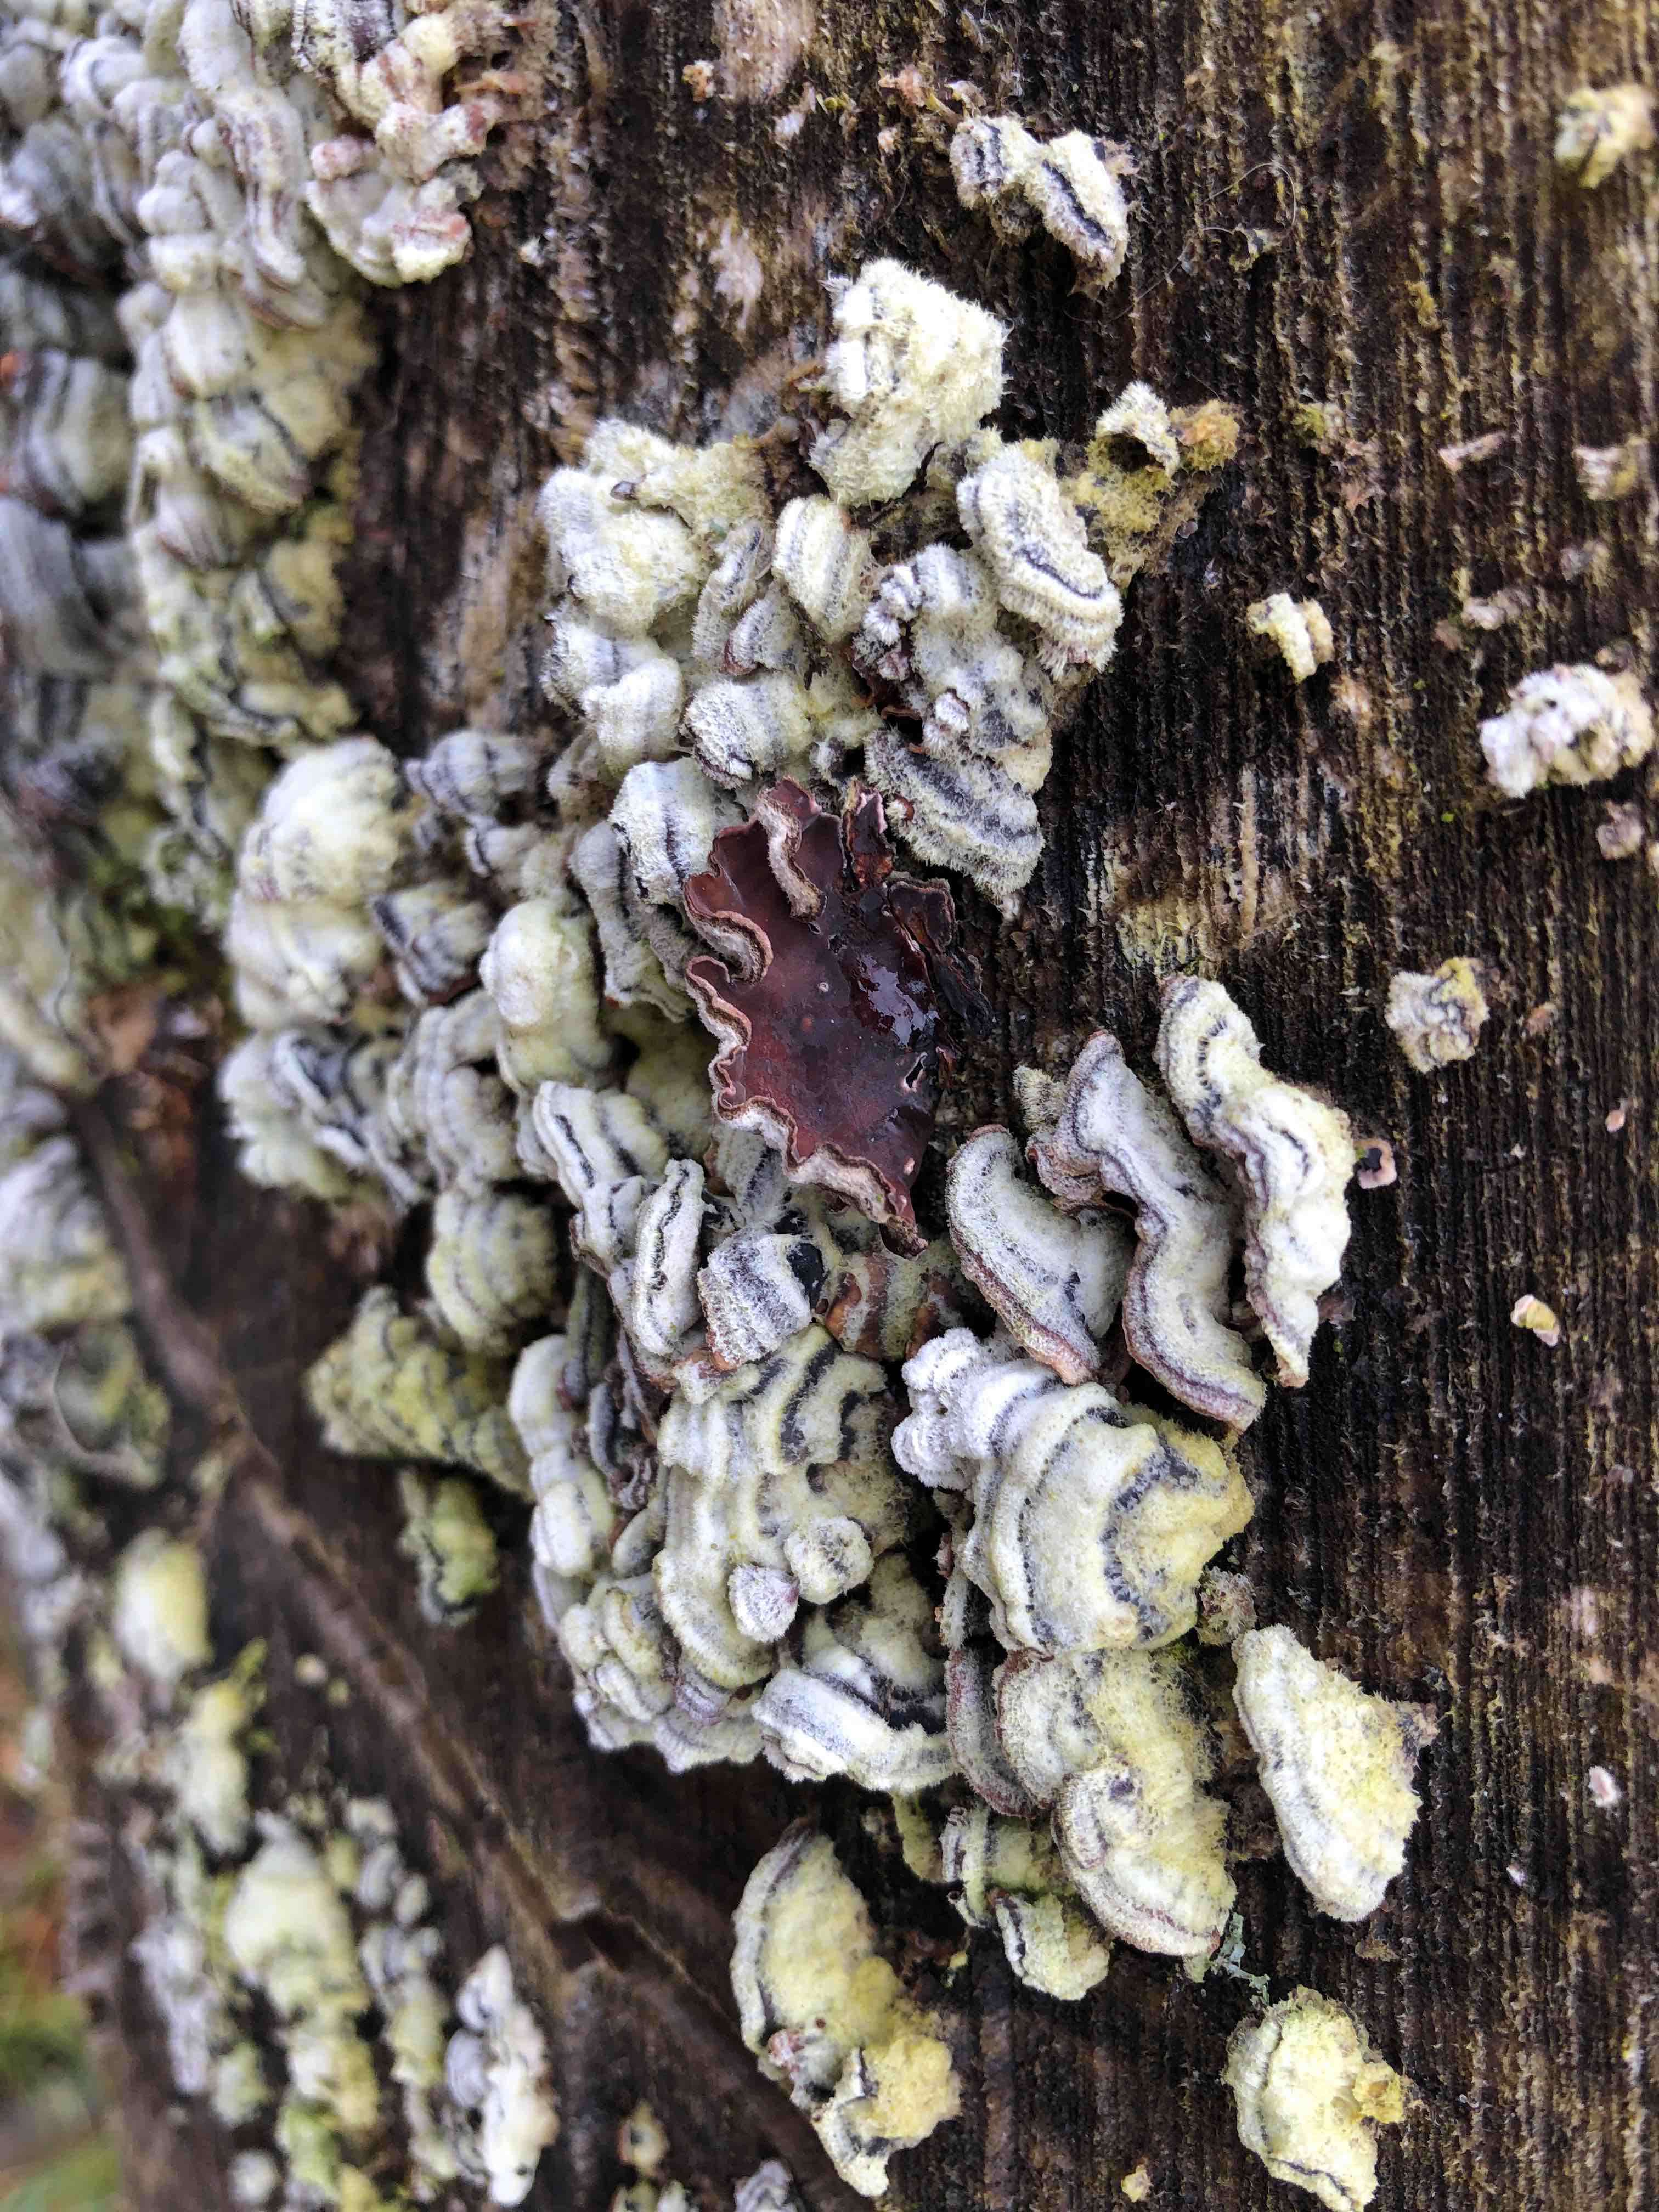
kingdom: Fungi
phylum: Basidiomycota
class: Agaricomycetes
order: Agaricales
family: Cyphellaceae
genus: Chondrostereum
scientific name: Chondrostereum purpureum
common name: purpurlædersvamp
